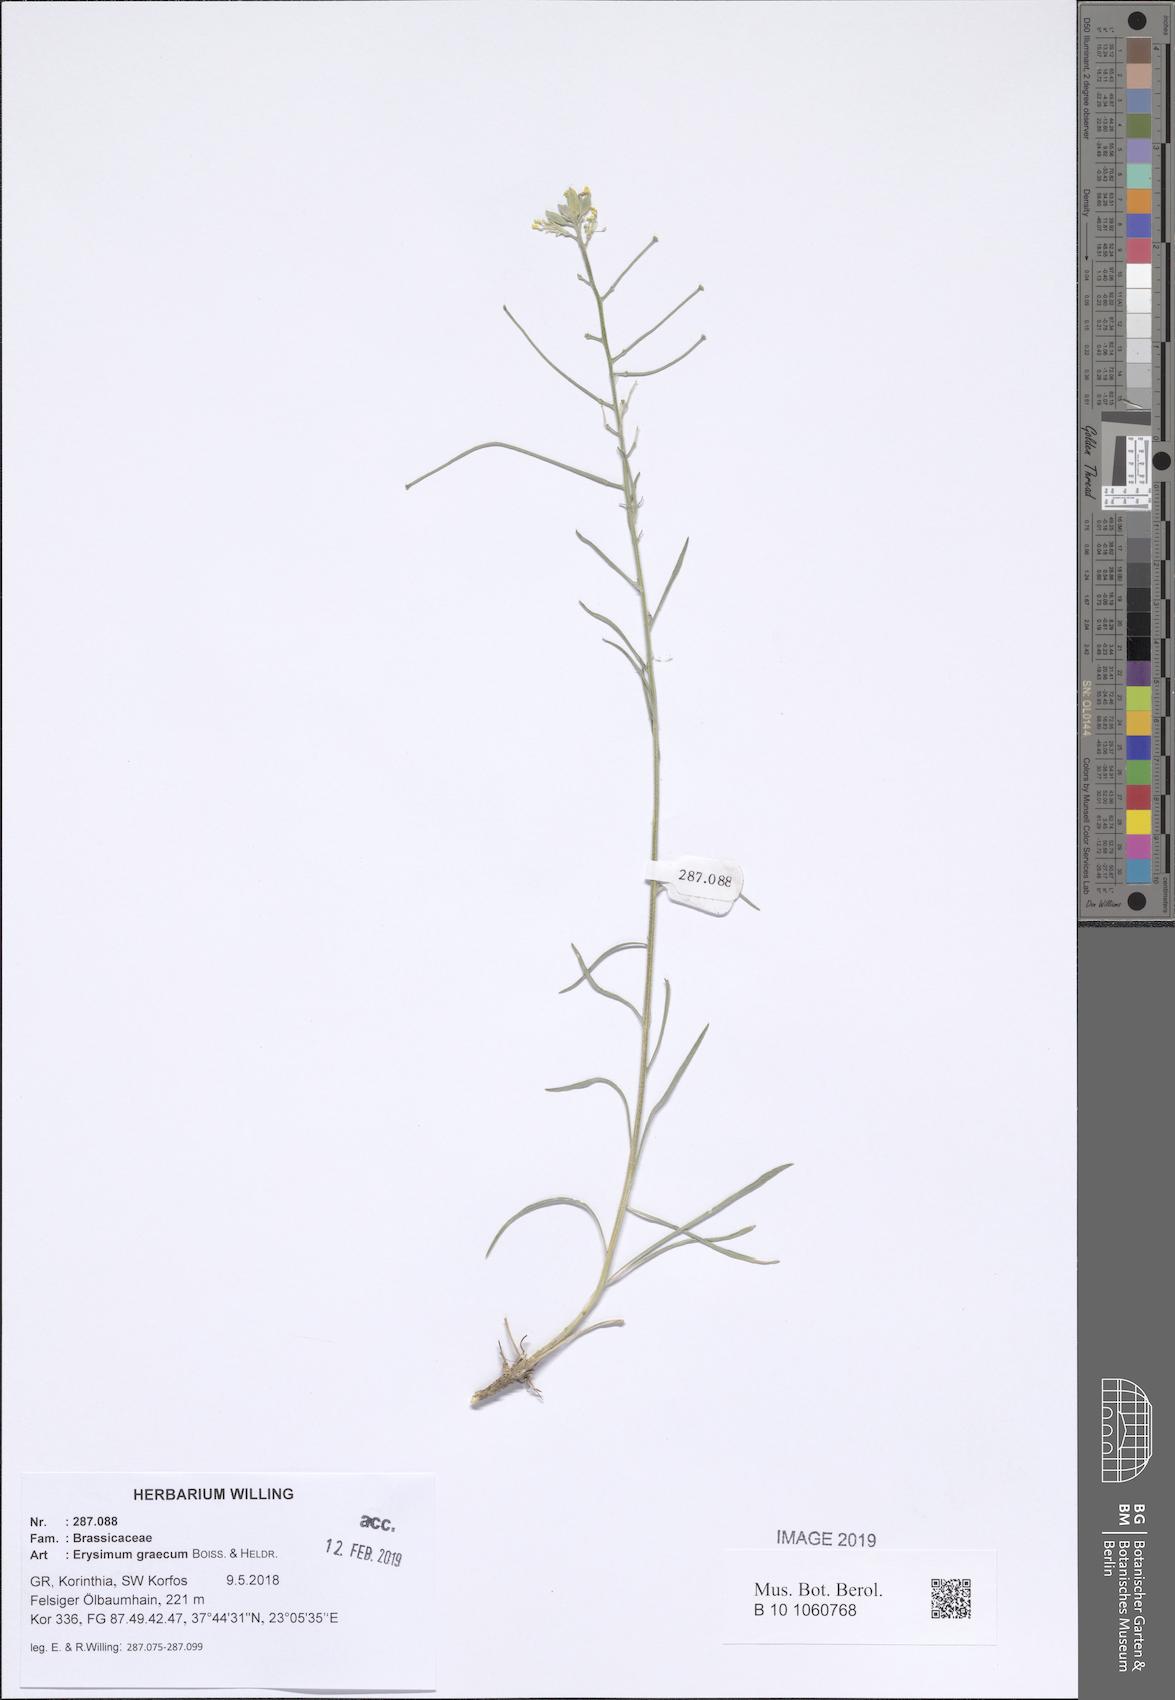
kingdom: Plantae
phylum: Tracheophyta
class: Magnoliopsida
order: Brassicales
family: Brassicaceae
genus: Erysimum
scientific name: Erysimum graecum
